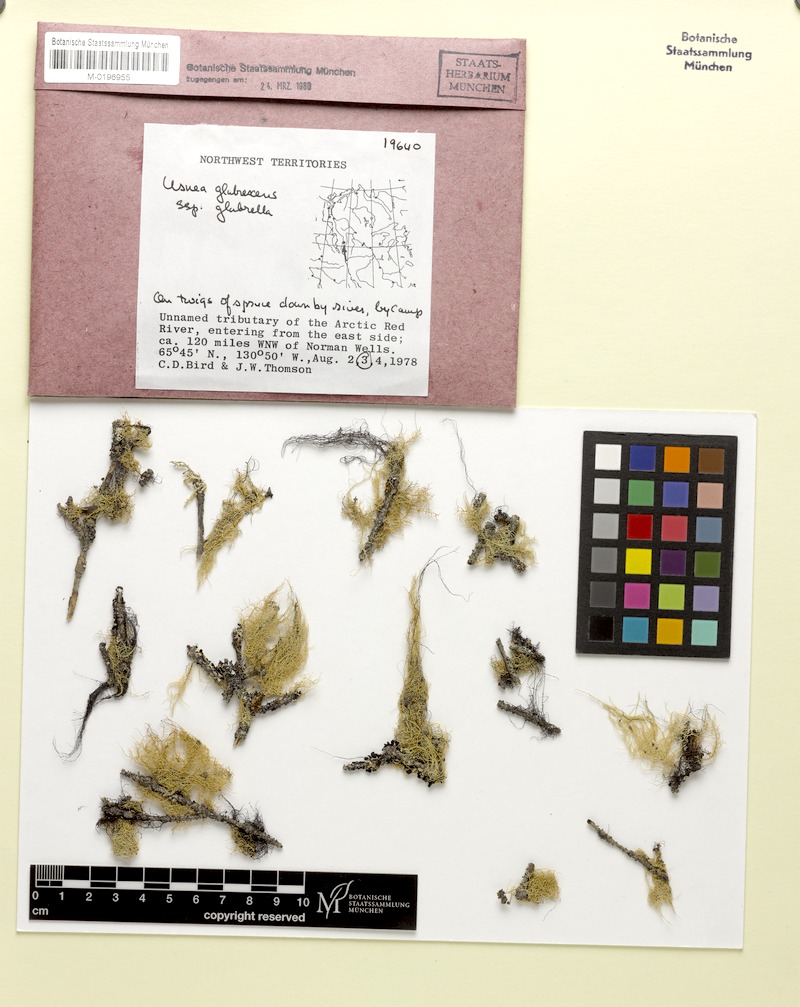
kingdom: Fungi
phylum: Ascomycota
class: Lecanoromycetes
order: Lecanorales
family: Parmeliaceae
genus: Usnea
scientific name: Usnea glabrescens
